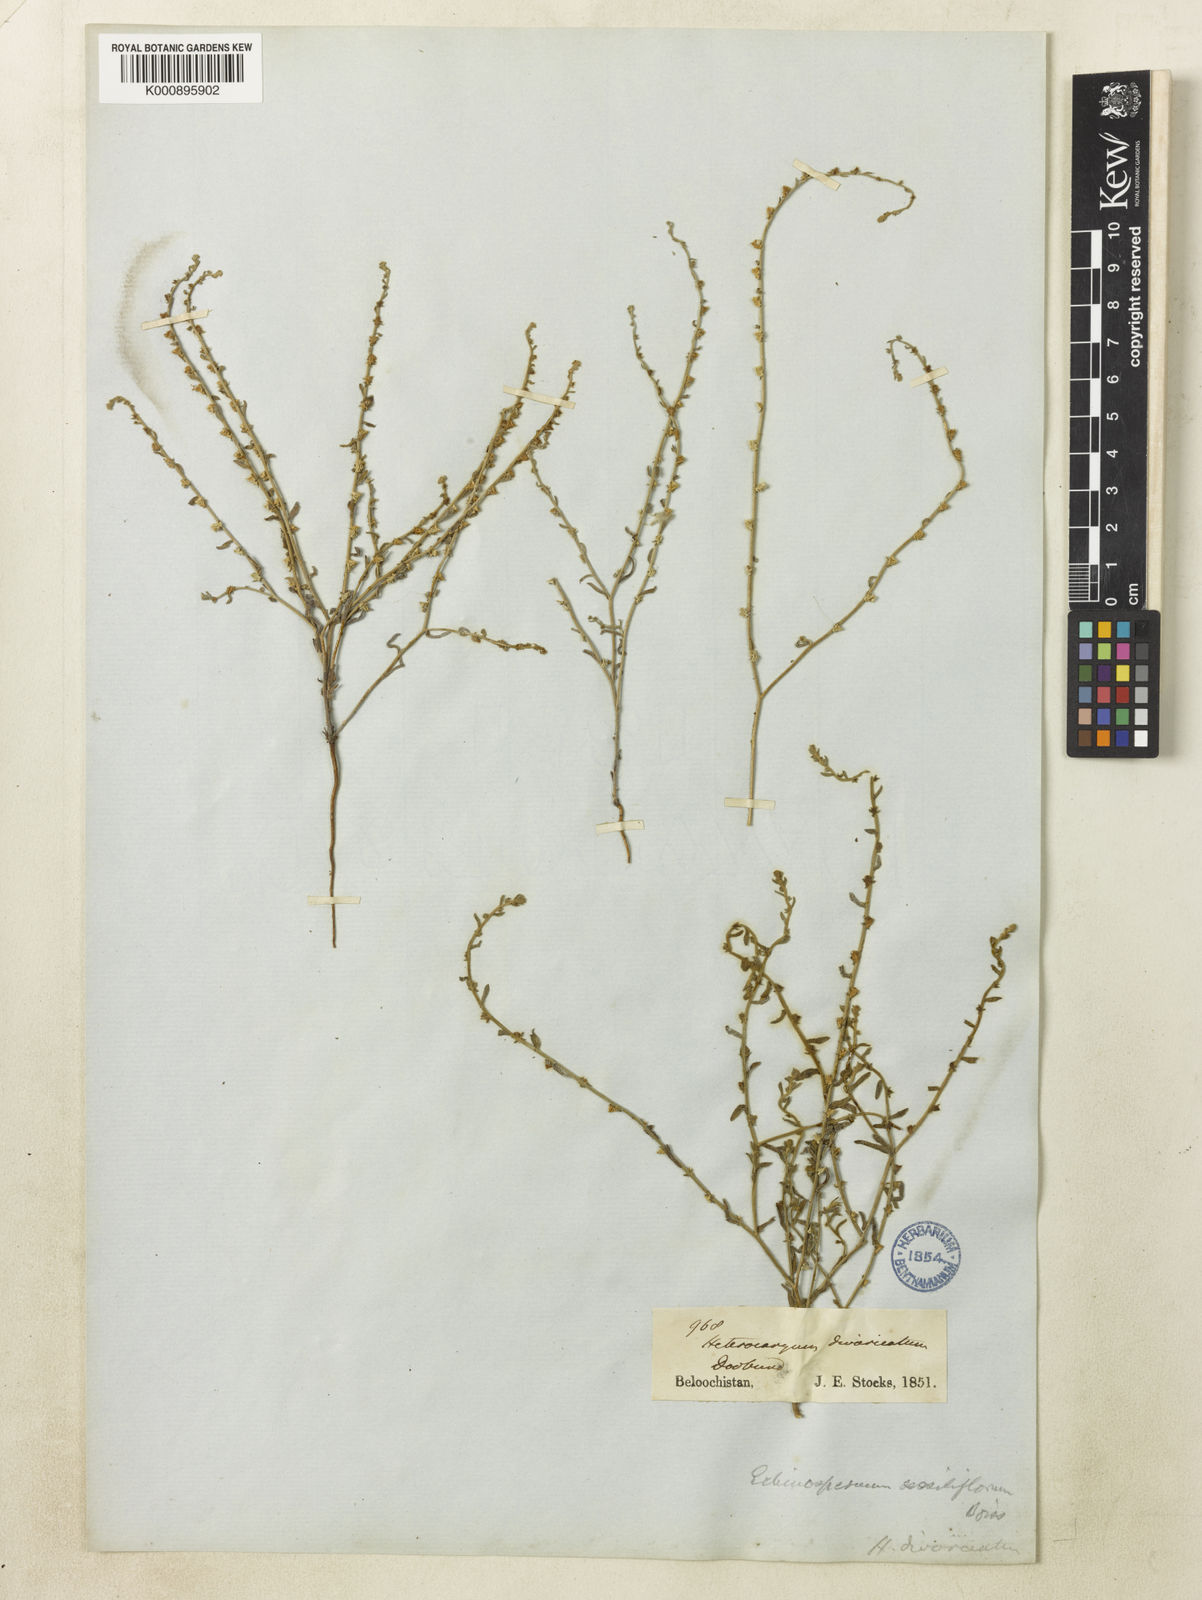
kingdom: Plantae
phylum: Tracheophyta
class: Magnoliopsida
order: Boraginales
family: Boraginaceae
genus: Lappula
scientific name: Lappula
